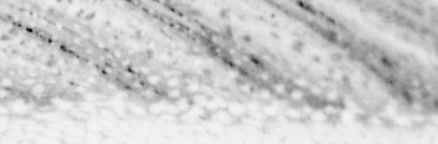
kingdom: Animalia
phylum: Chordata
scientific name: Chordata
